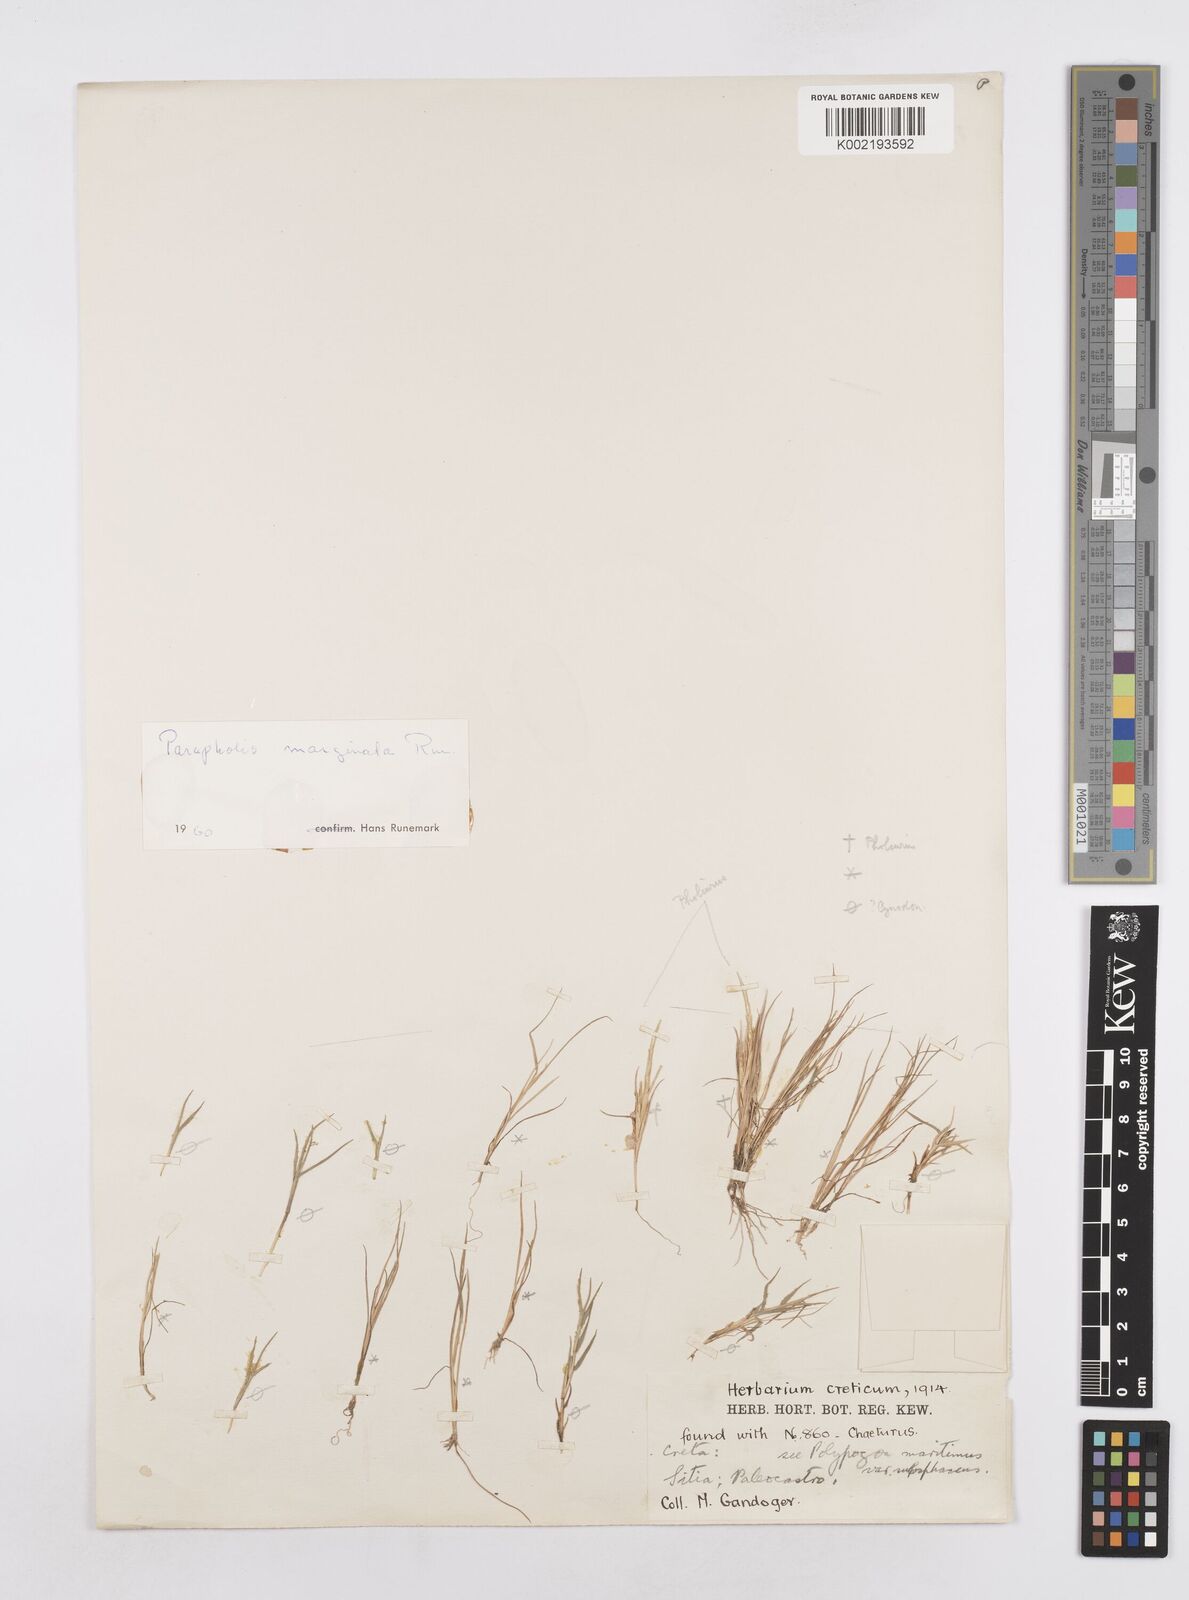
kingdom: Plantae
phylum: Tracheophyta
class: Liliopsida
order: Poales
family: Poaceae
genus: Parapholis
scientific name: Parapholis marginata
